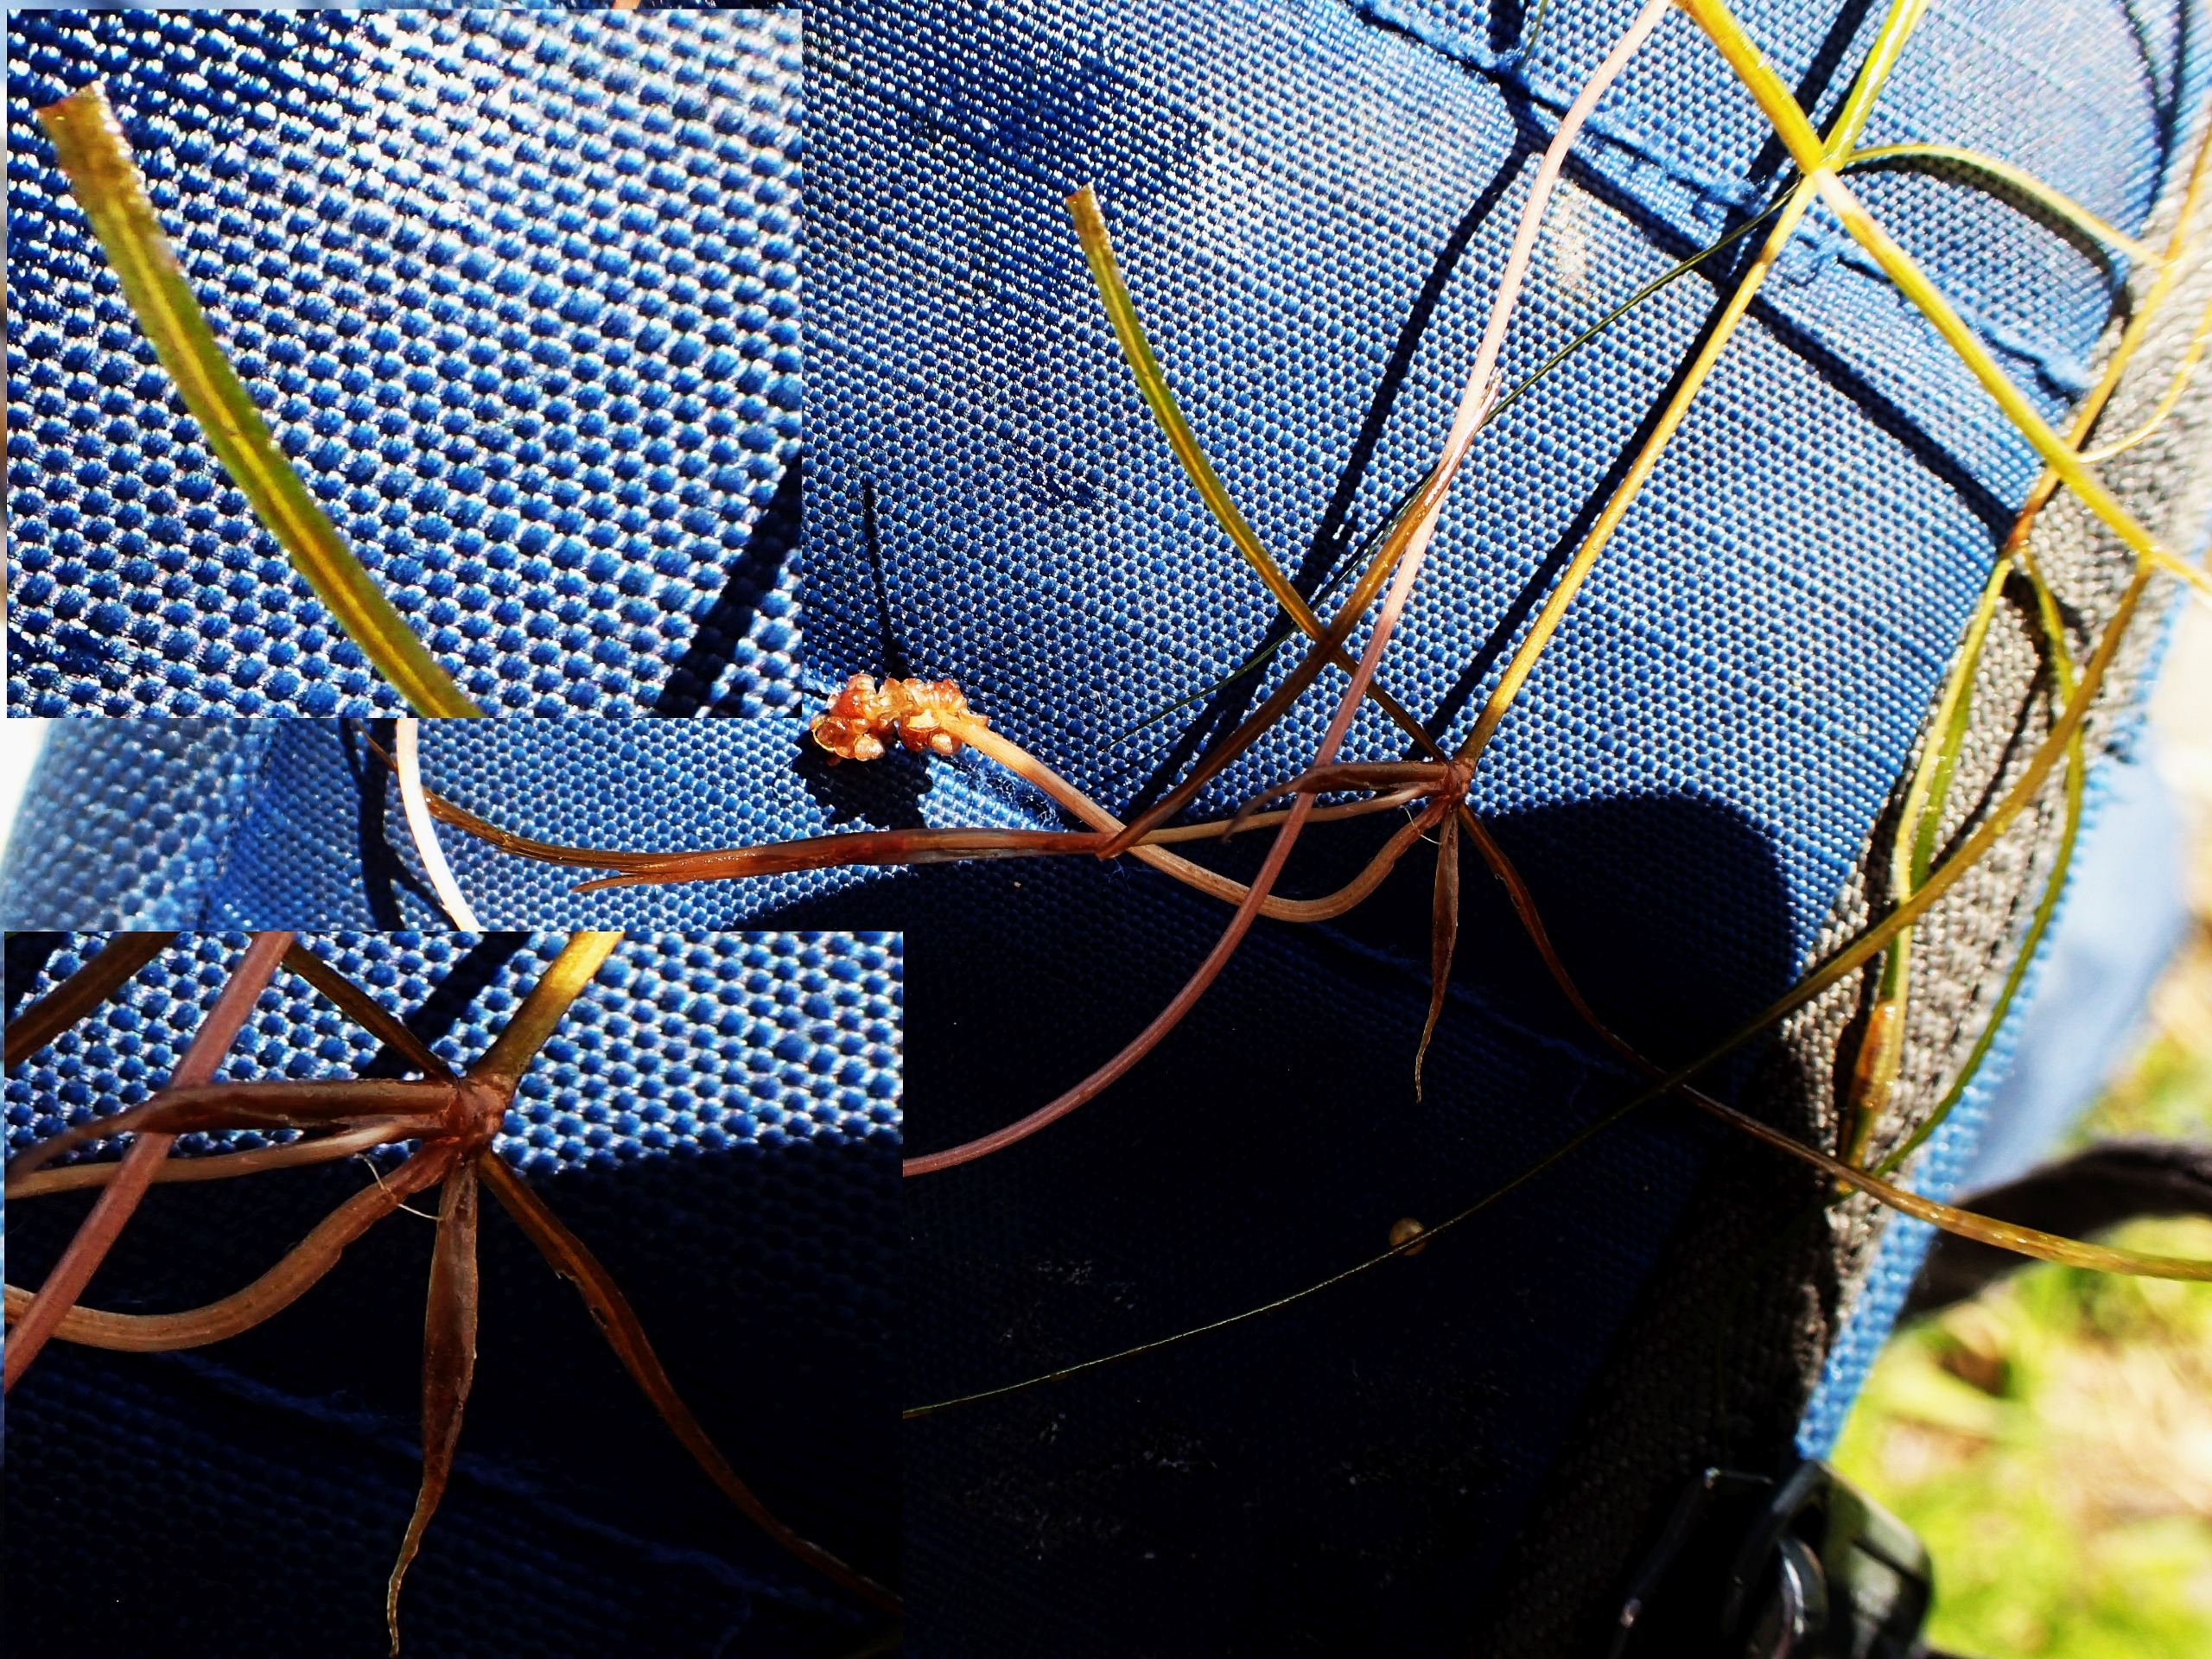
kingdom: Plantae
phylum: Tracheophyta
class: Liliopsida
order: Alismatales
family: Potamogetonaceae
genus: Potamogeton
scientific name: Potamogeton pusillus
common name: Spinkel vandaks
